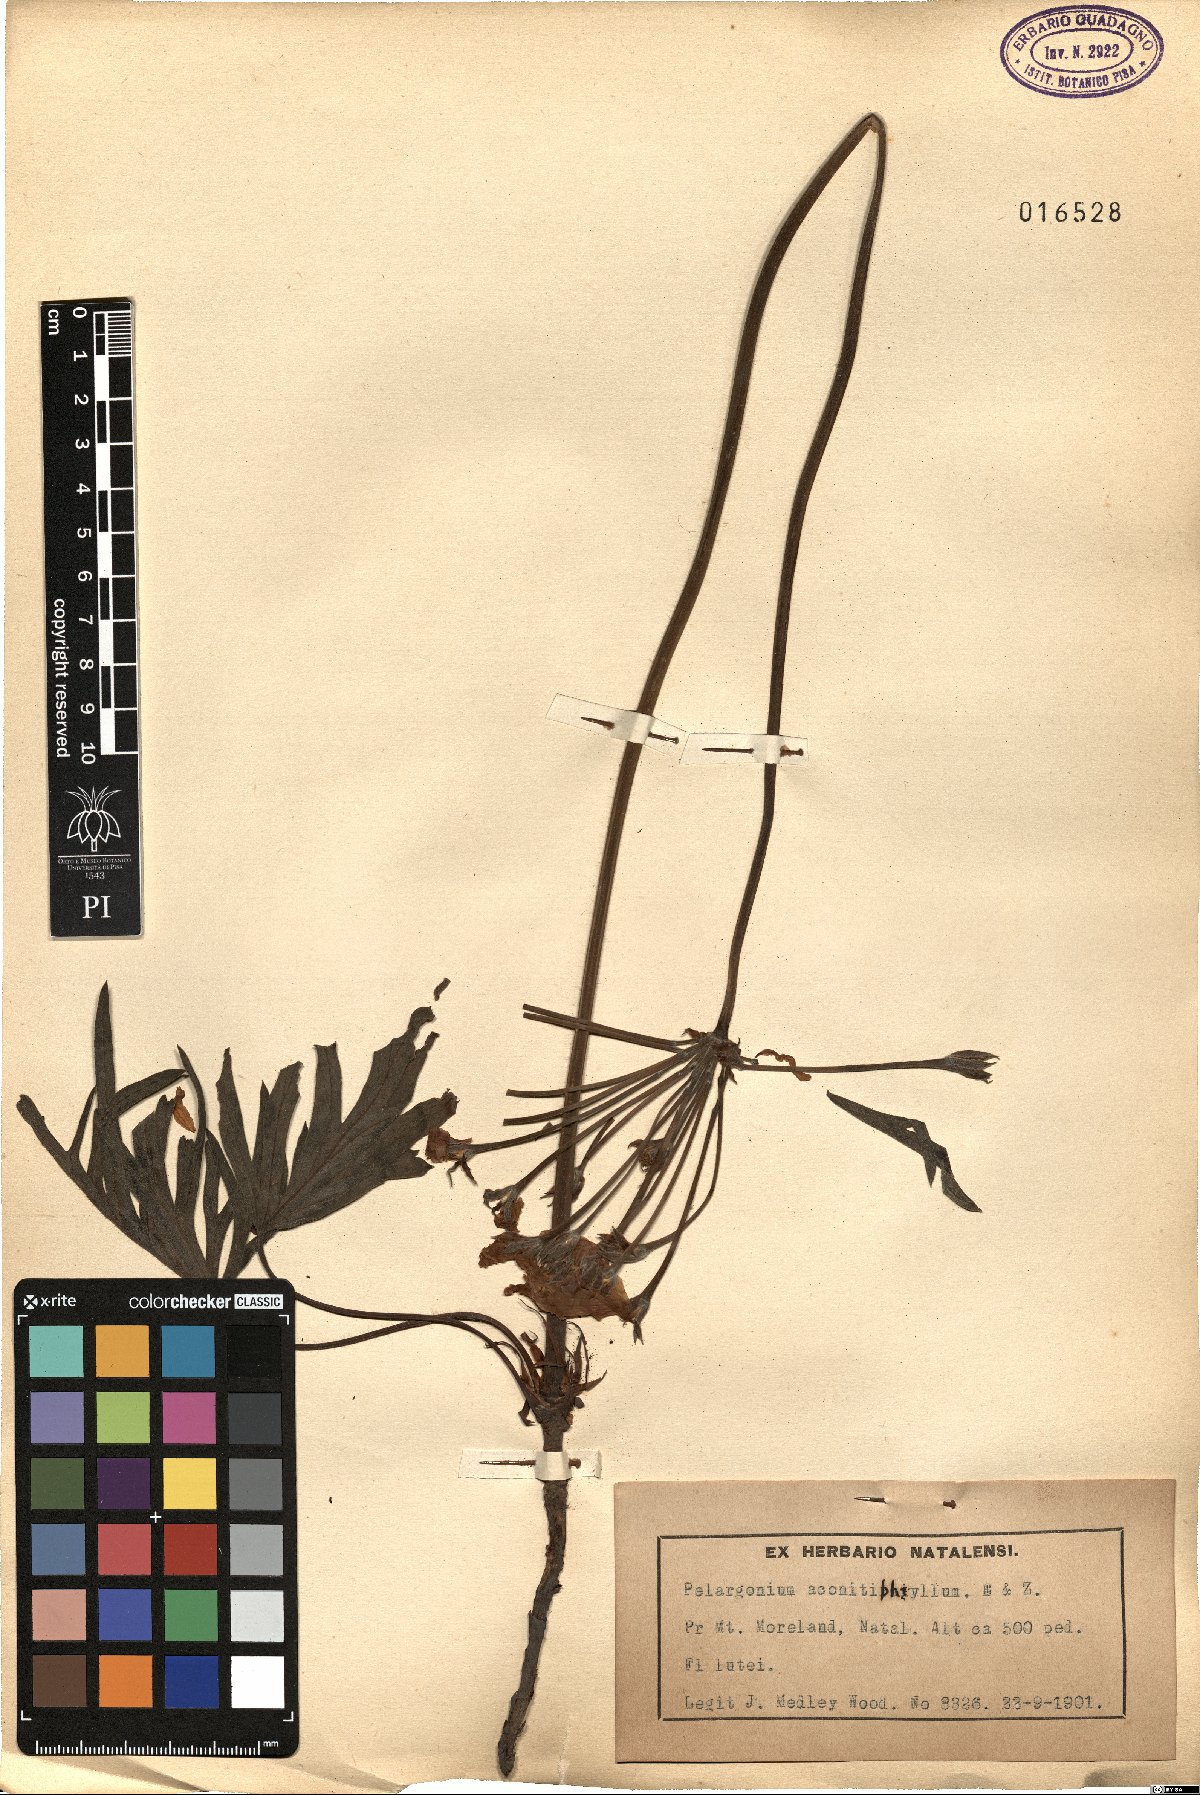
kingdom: Plantae
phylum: Tracheophyta
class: Magnoliopsida
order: Geraniales
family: Geraniaceae
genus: Pelargonium
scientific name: Pelargonium luridum
